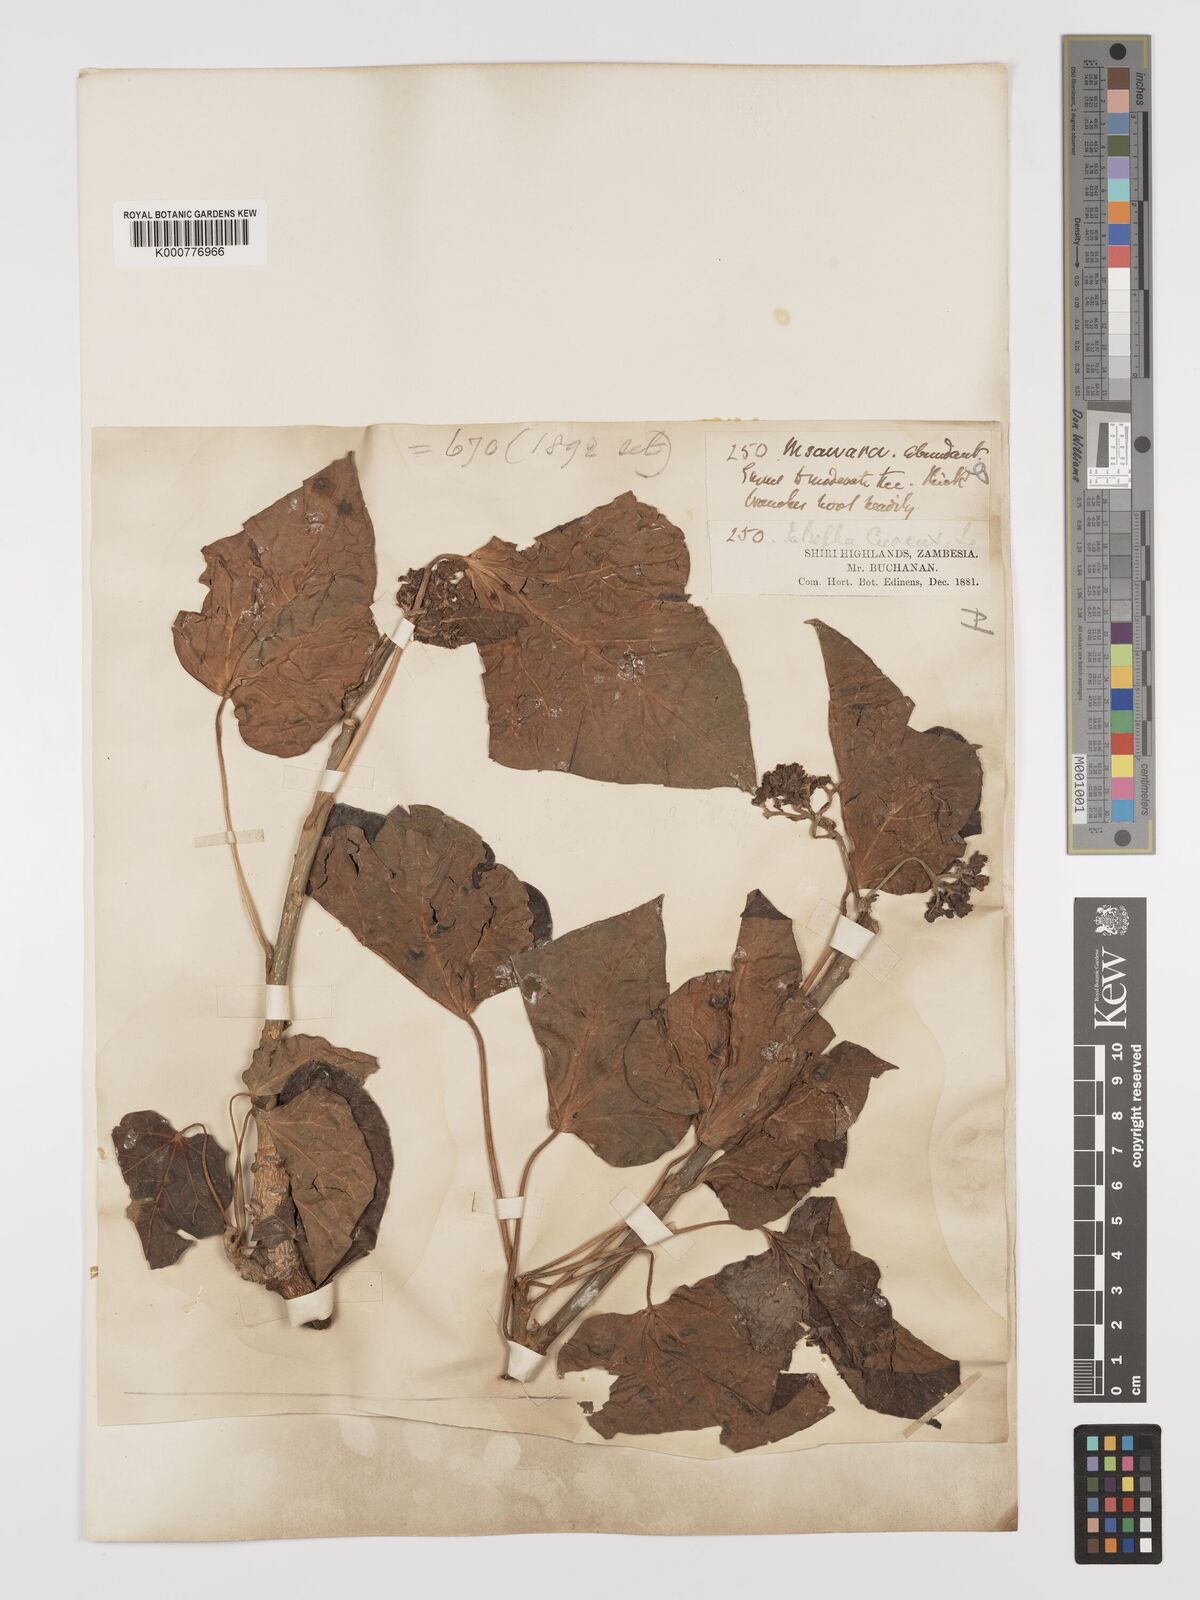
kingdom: Plantae
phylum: Tracheophyta
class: Magnoliopsida
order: Malpighiales
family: Euphorbiaceae
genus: Jatropha
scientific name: Jatropha curcas
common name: Barbados nut
